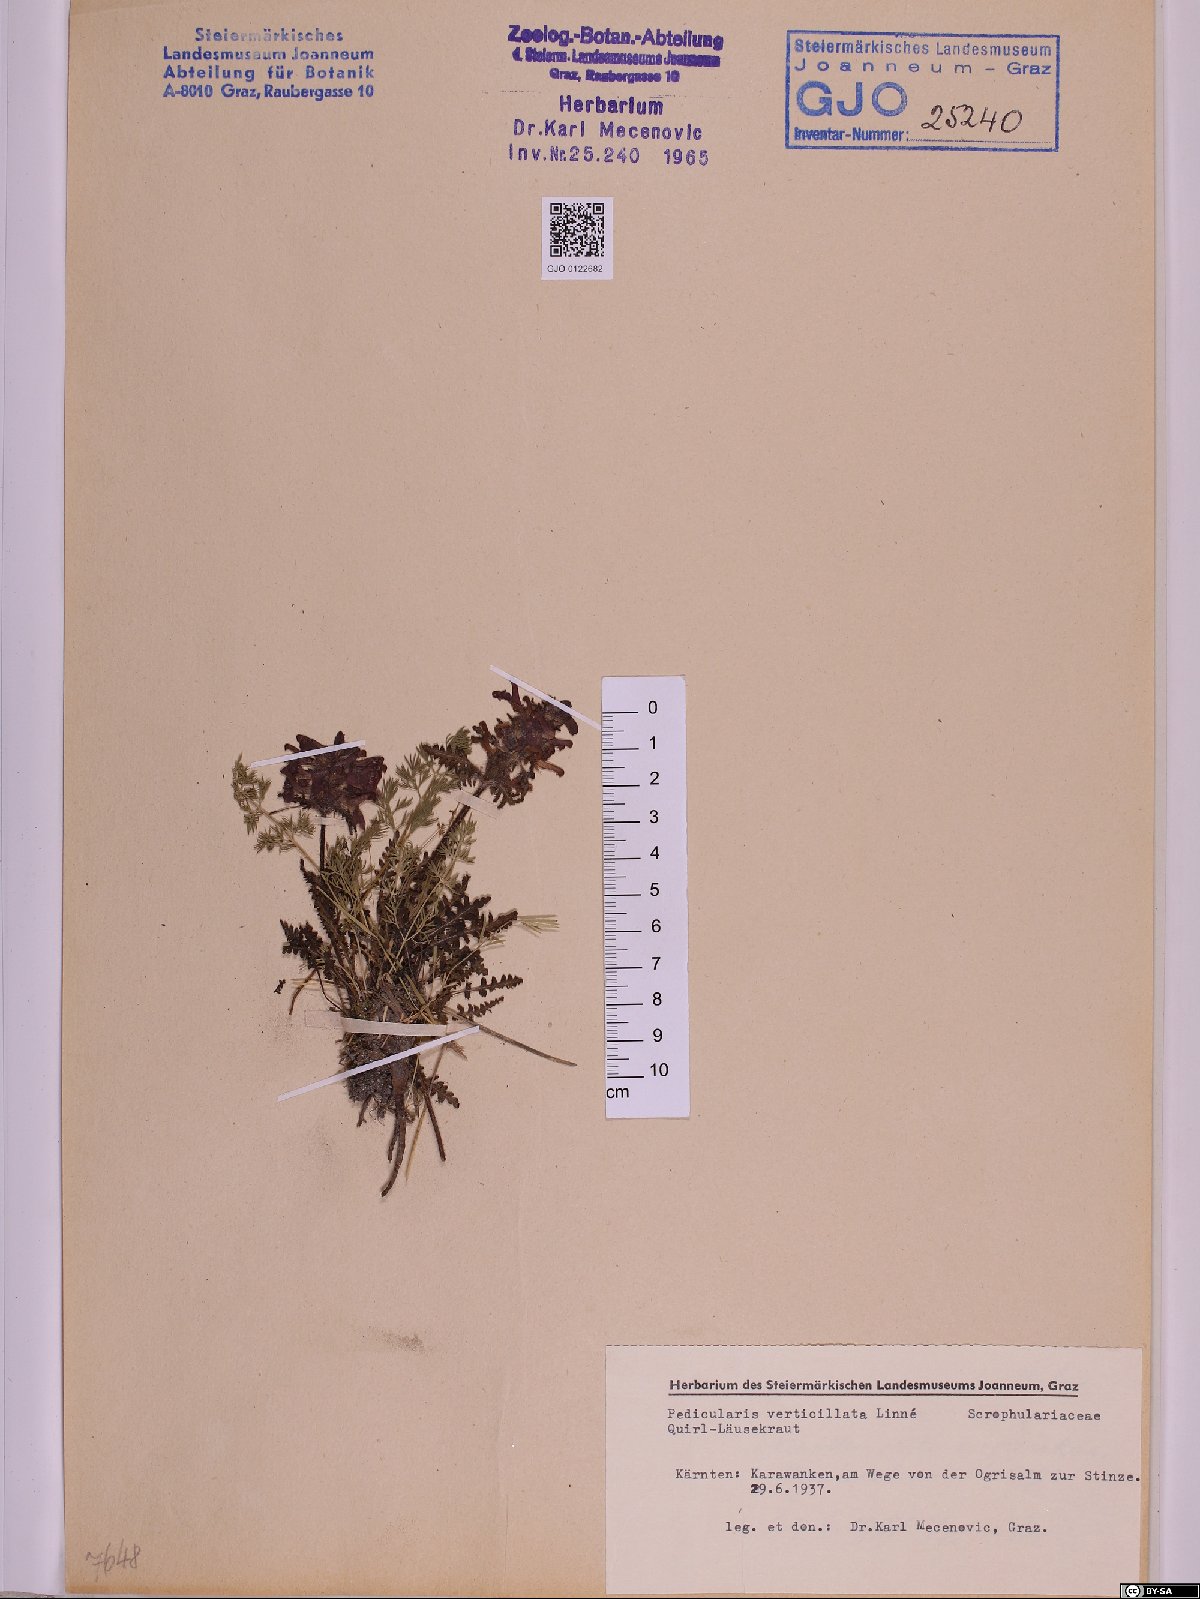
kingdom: Plantae
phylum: Tracheophyta
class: Magnoliopsida
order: Lamiales
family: Orobanchaceae
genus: Pedicularis
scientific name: Pedicularis verticillata
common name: Whorled lousewort
